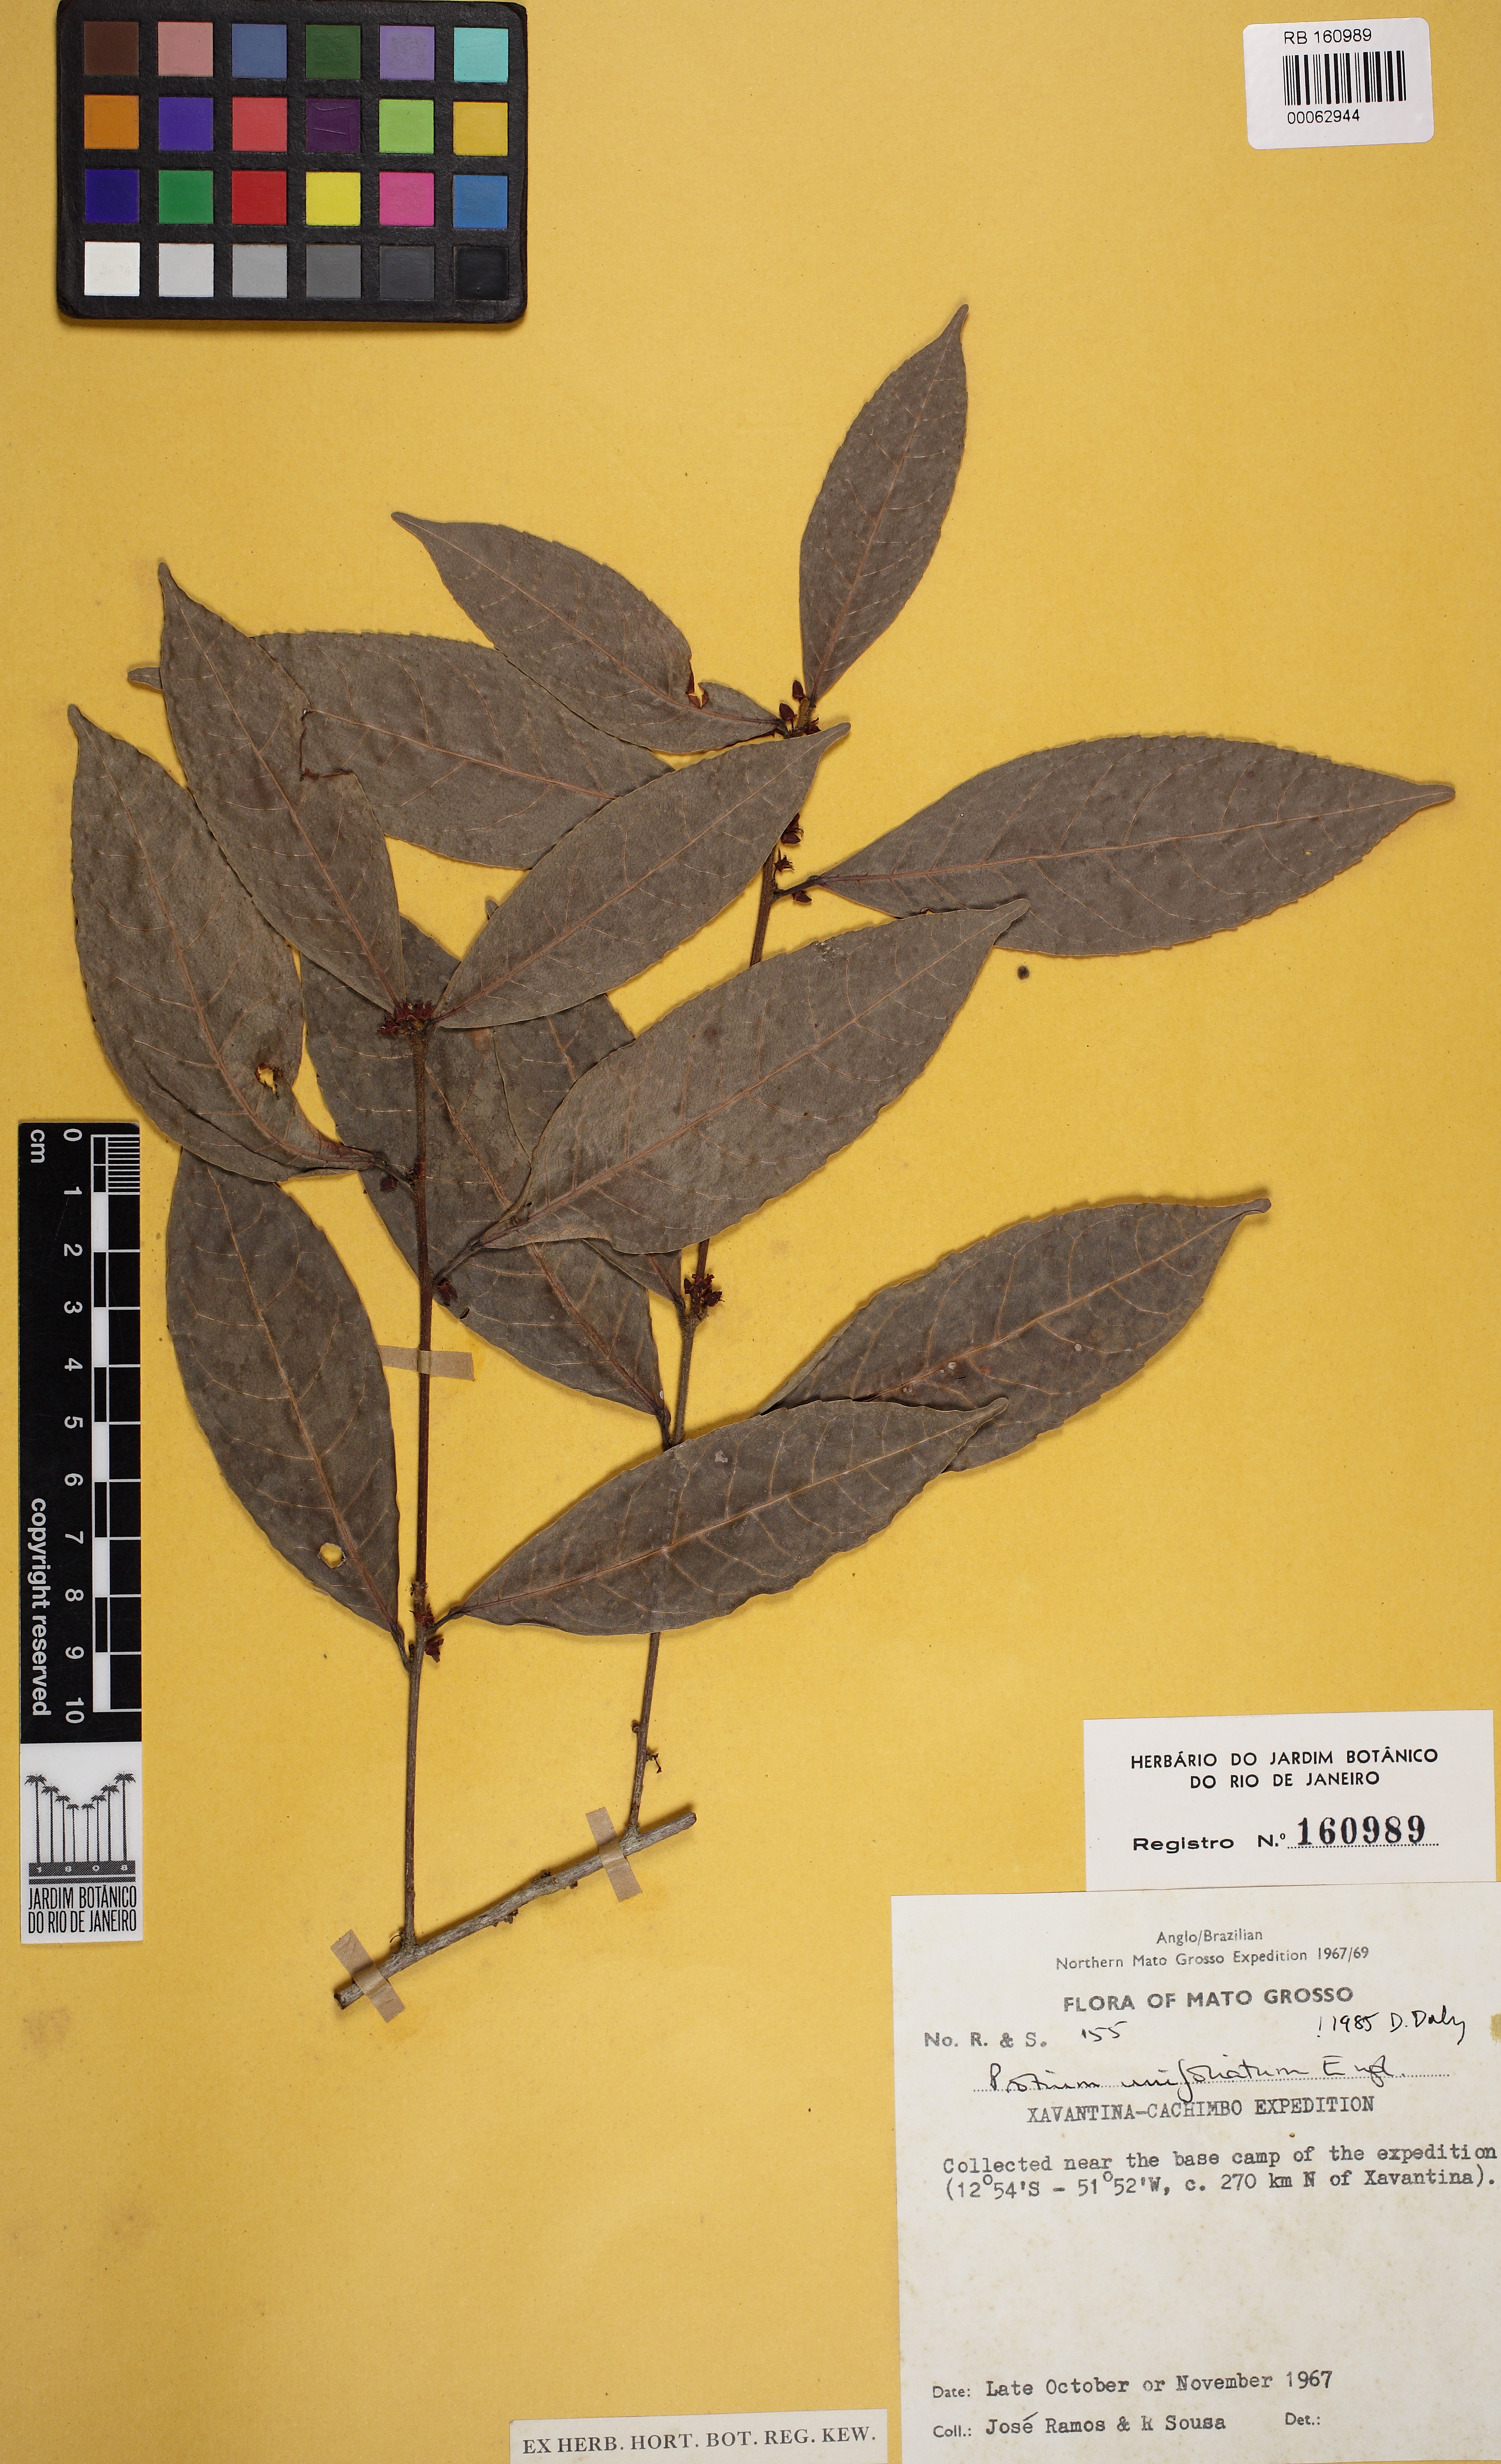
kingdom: Plantae
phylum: Tracheophyta
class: Magnoliopsida
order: Sapindales
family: Burseraceae
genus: Protium
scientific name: Protium unifoliolatum
